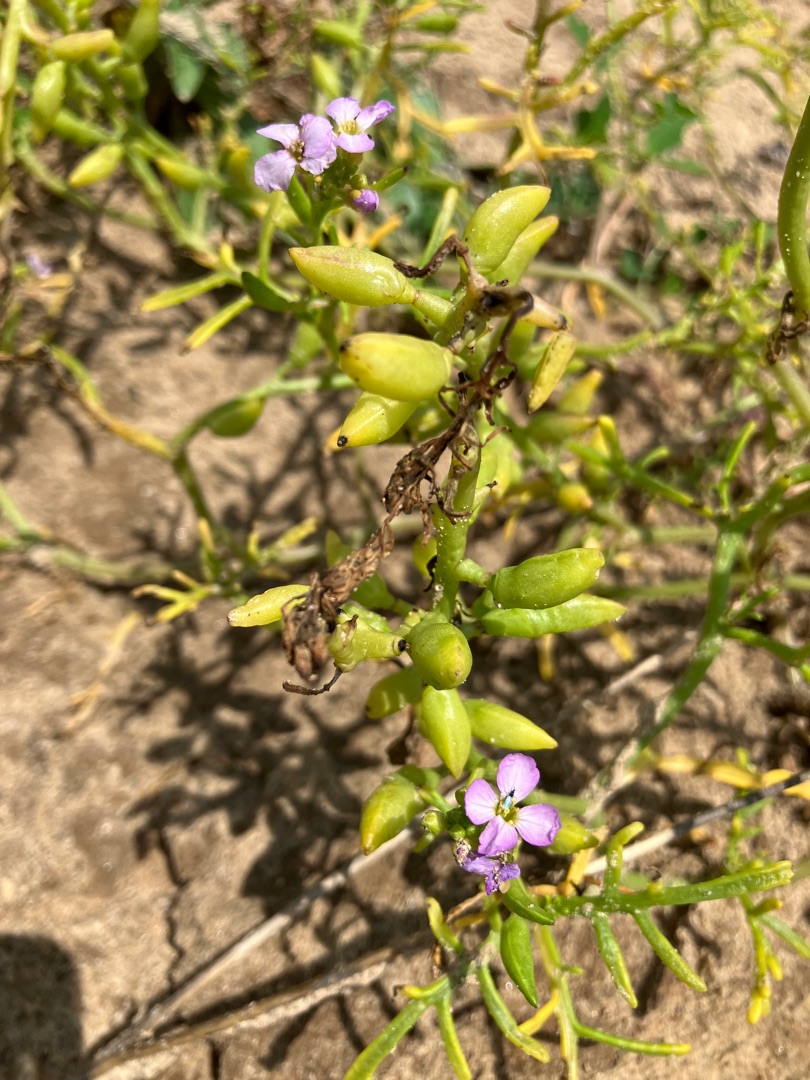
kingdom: Plantae
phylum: Tracheophyta
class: Magnoliopsida
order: Brassicales
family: Brassicaceae
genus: Cakile
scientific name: Cakile maritima
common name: Strandsennep
